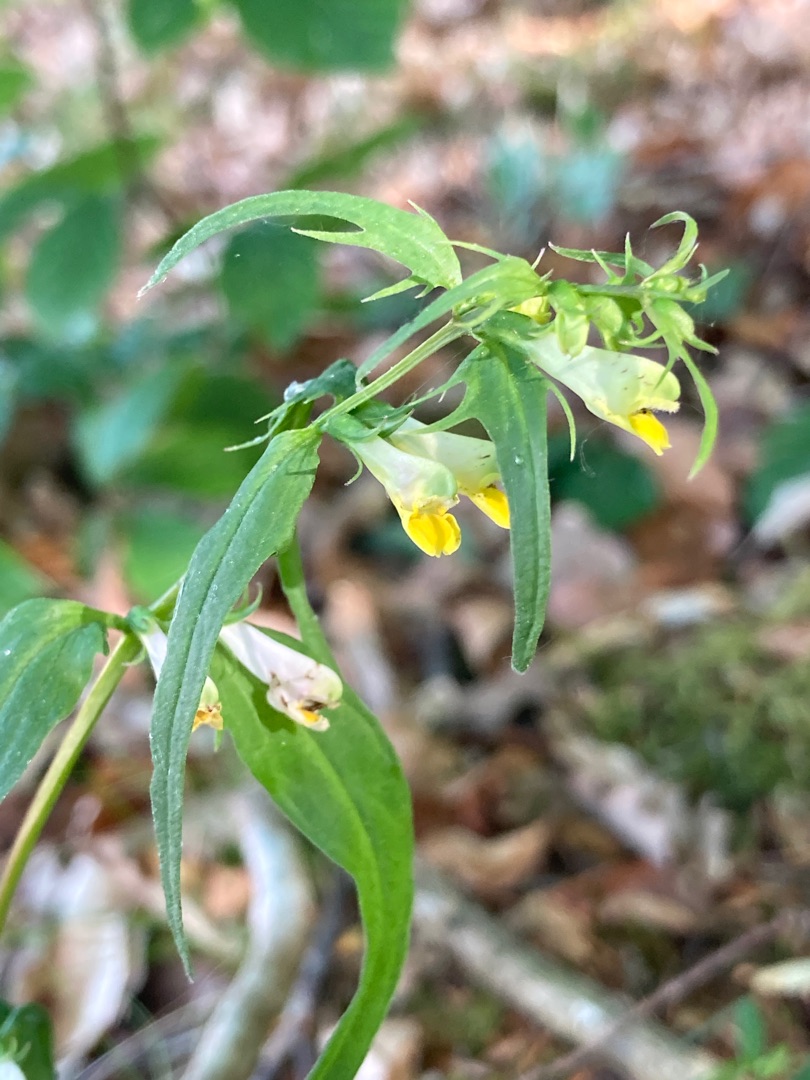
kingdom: Plantae
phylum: Tracheophyta
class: Magnoliopsida
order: Lamiales
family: Orobanchaceae
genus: Melampyrum
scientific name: Melampyrum pratense
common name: Almindelig kohvede
